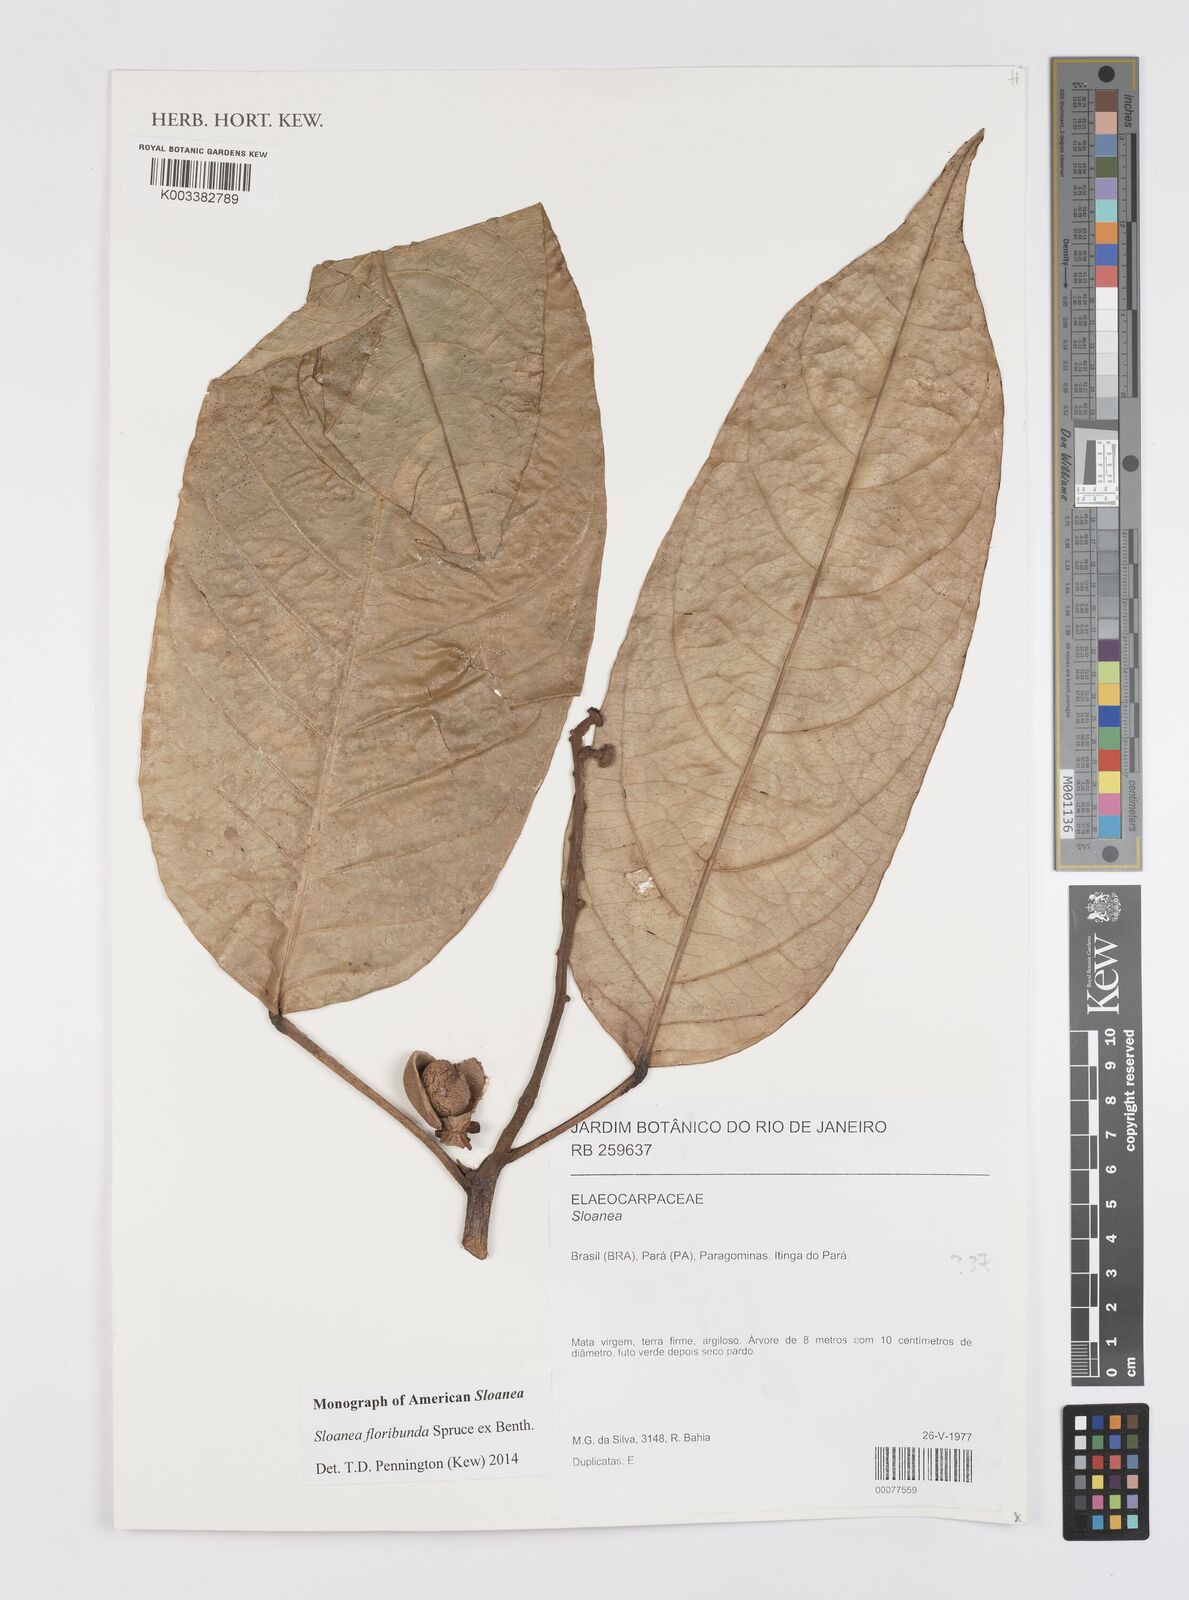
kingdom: Plantae
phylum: Tracheophyta
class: Magnoliopsida
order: Oxalidales
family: Elaeocarpaceae
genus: Sloanea
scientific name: Sloanea floribunda
